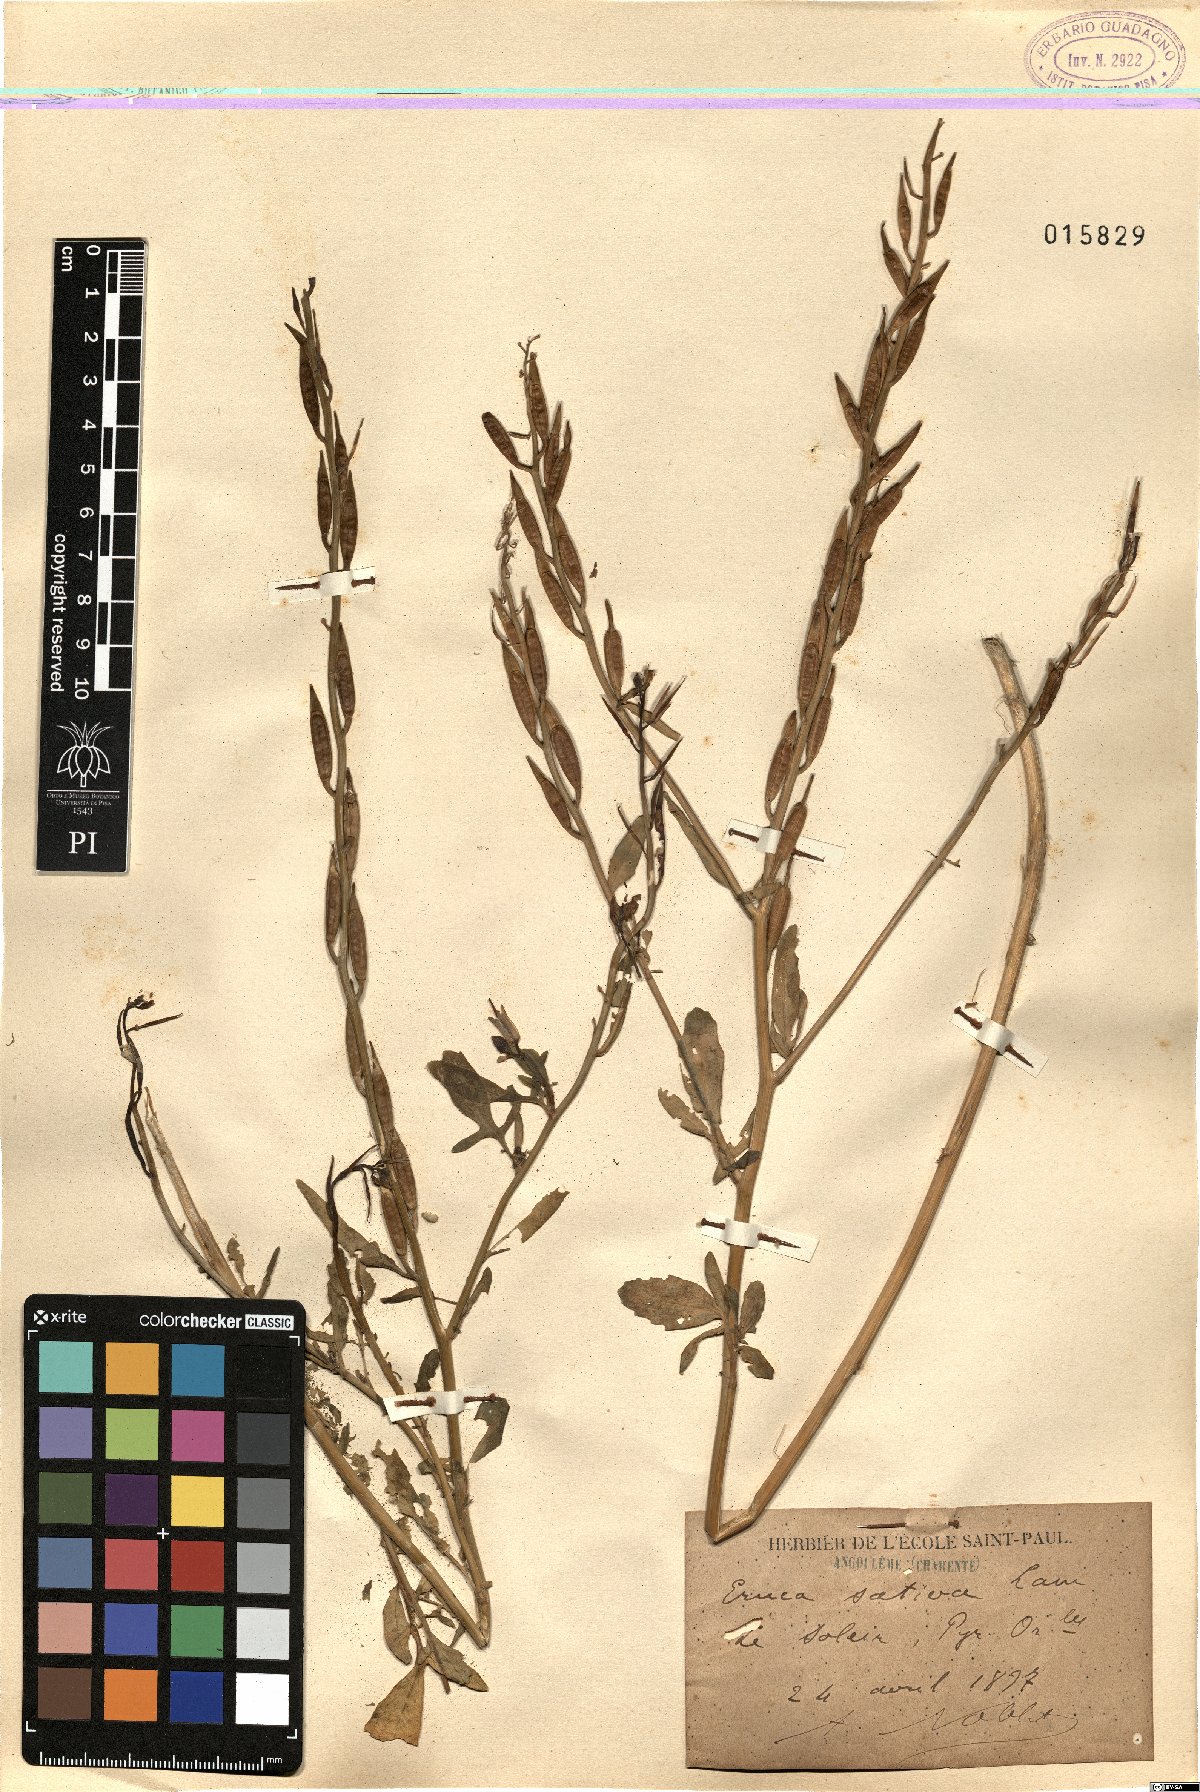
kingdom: Plantae
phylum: Tracheophyta
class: Magnoliopsida
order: Brassicales
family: Brassicaceae
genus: Eruca
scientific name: Eruca vesicaria
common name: Garden rocket
